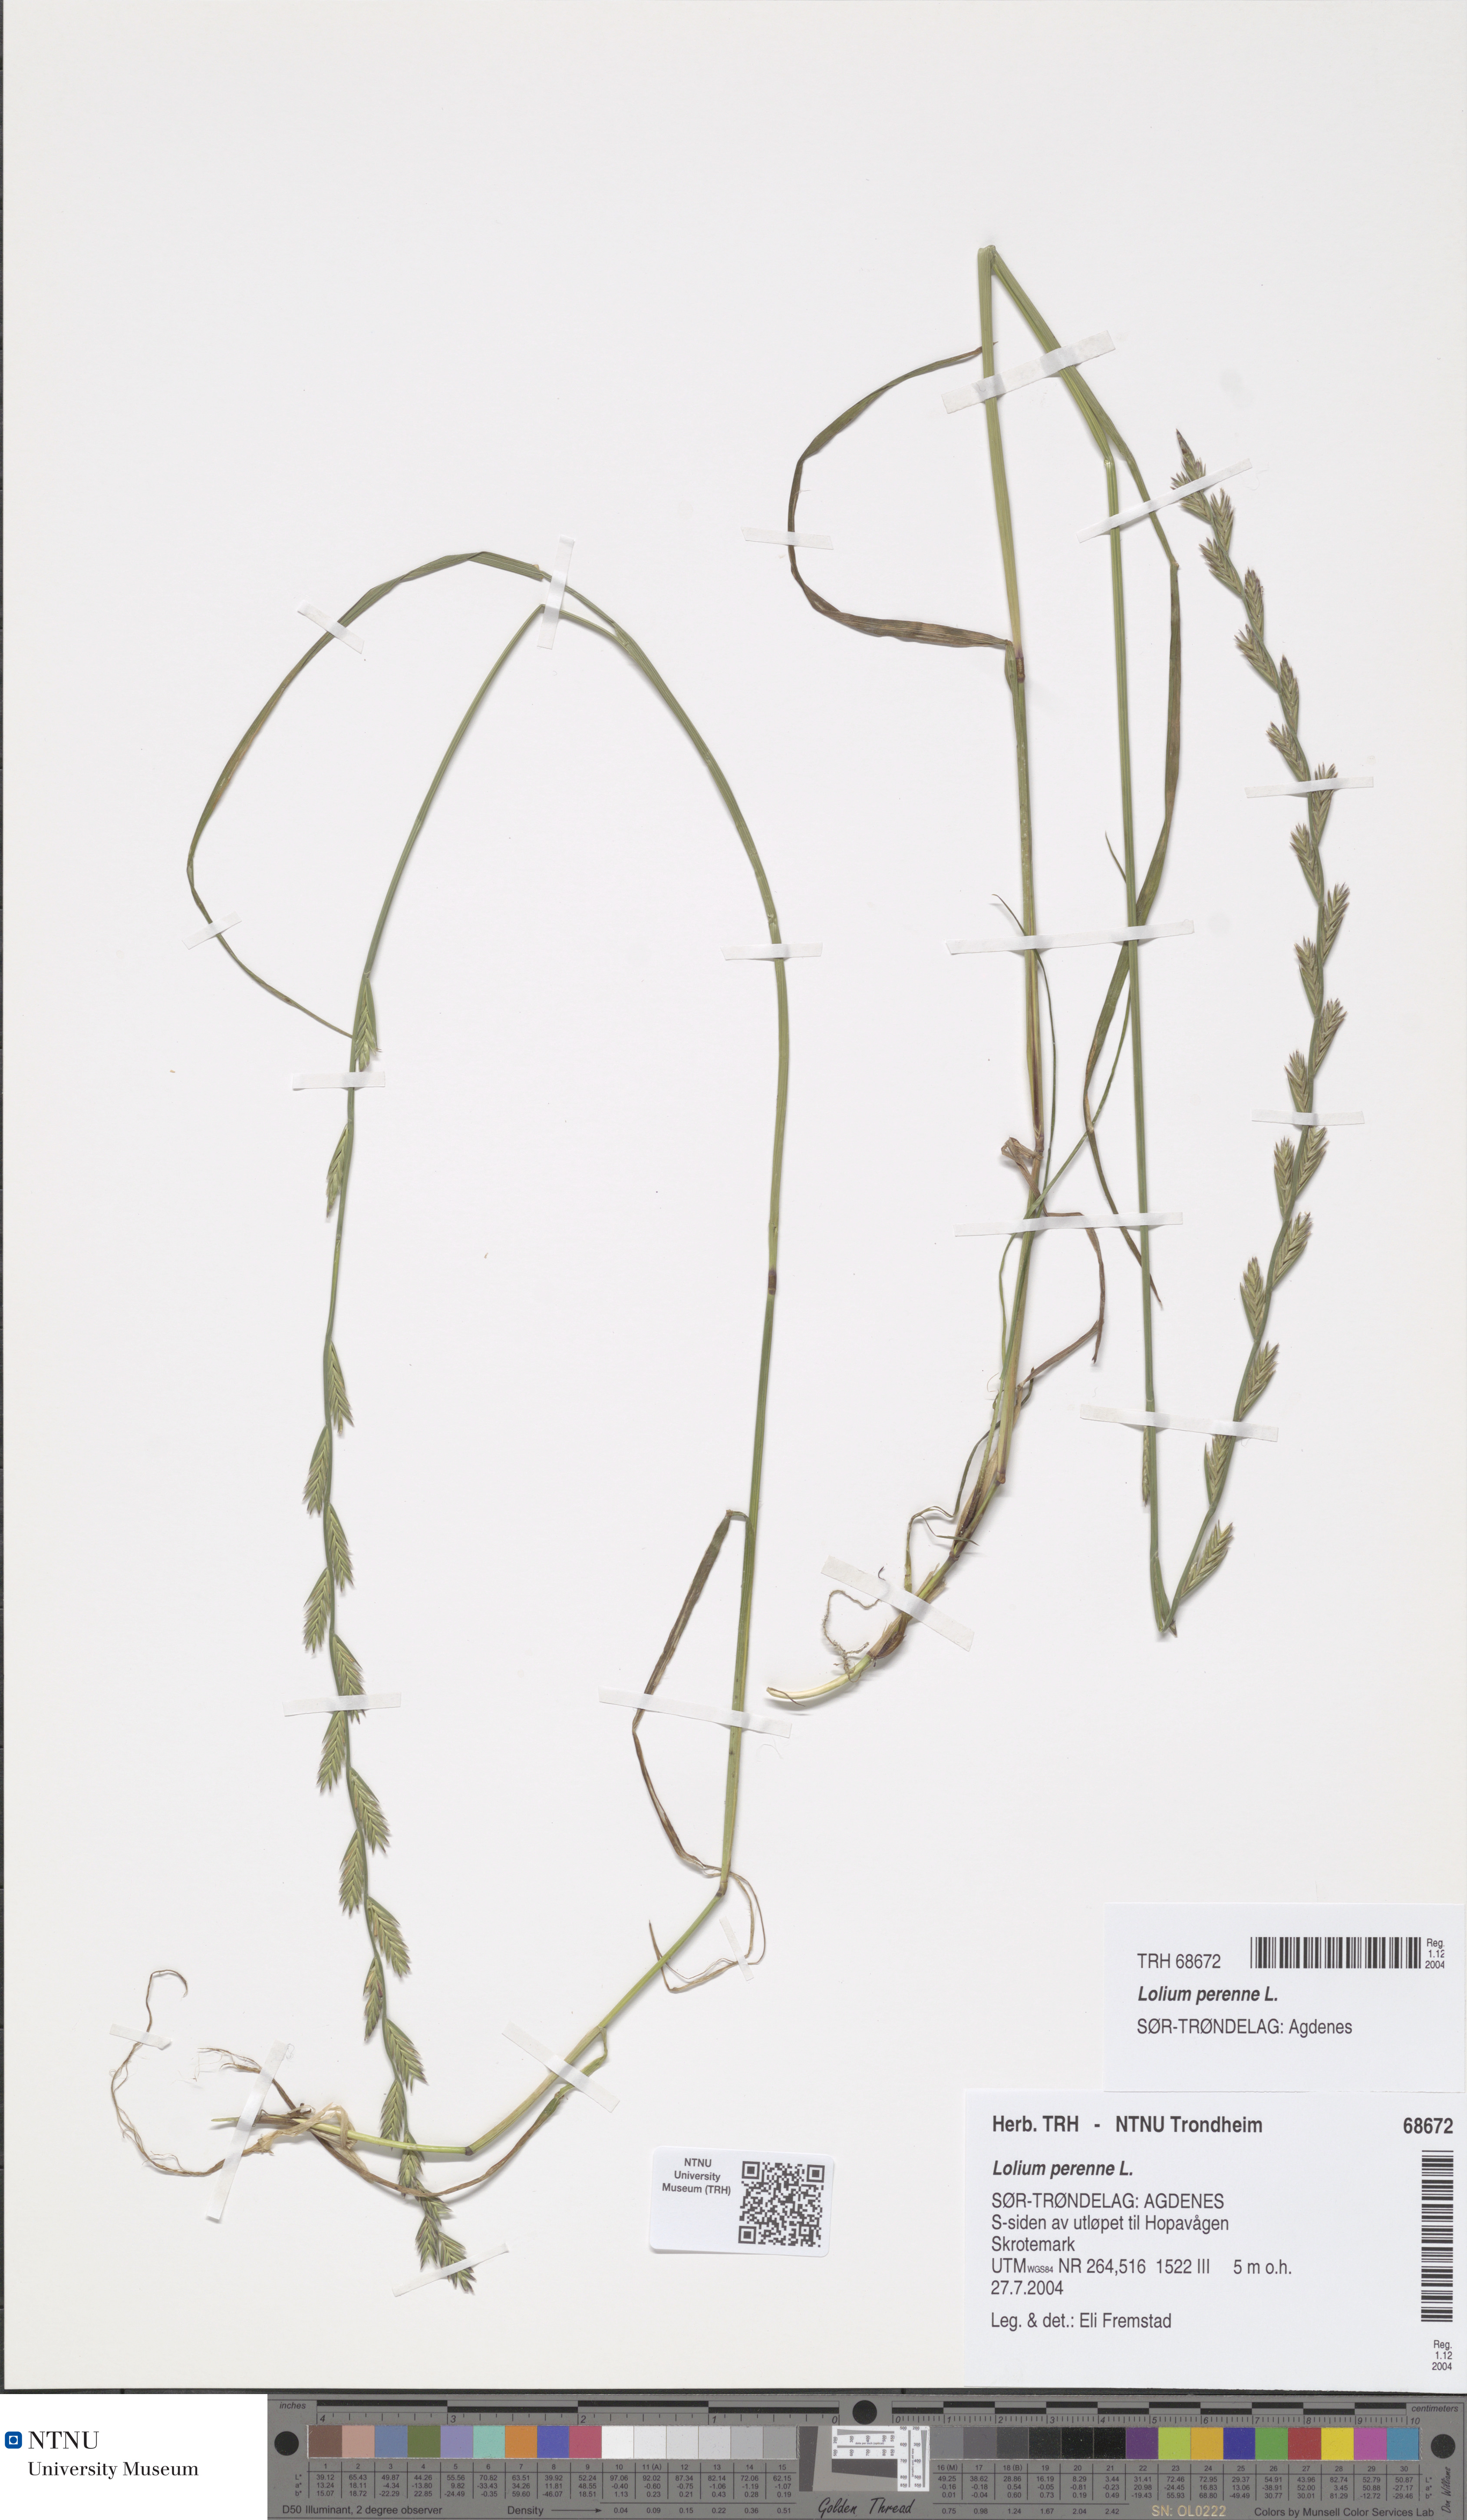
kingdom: Plantae
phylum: Tracheophyta
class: Liliopsida
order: Poales
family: Poaceae
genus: Lolium
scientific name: Lolium perenne
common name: Perennial ryegrass
